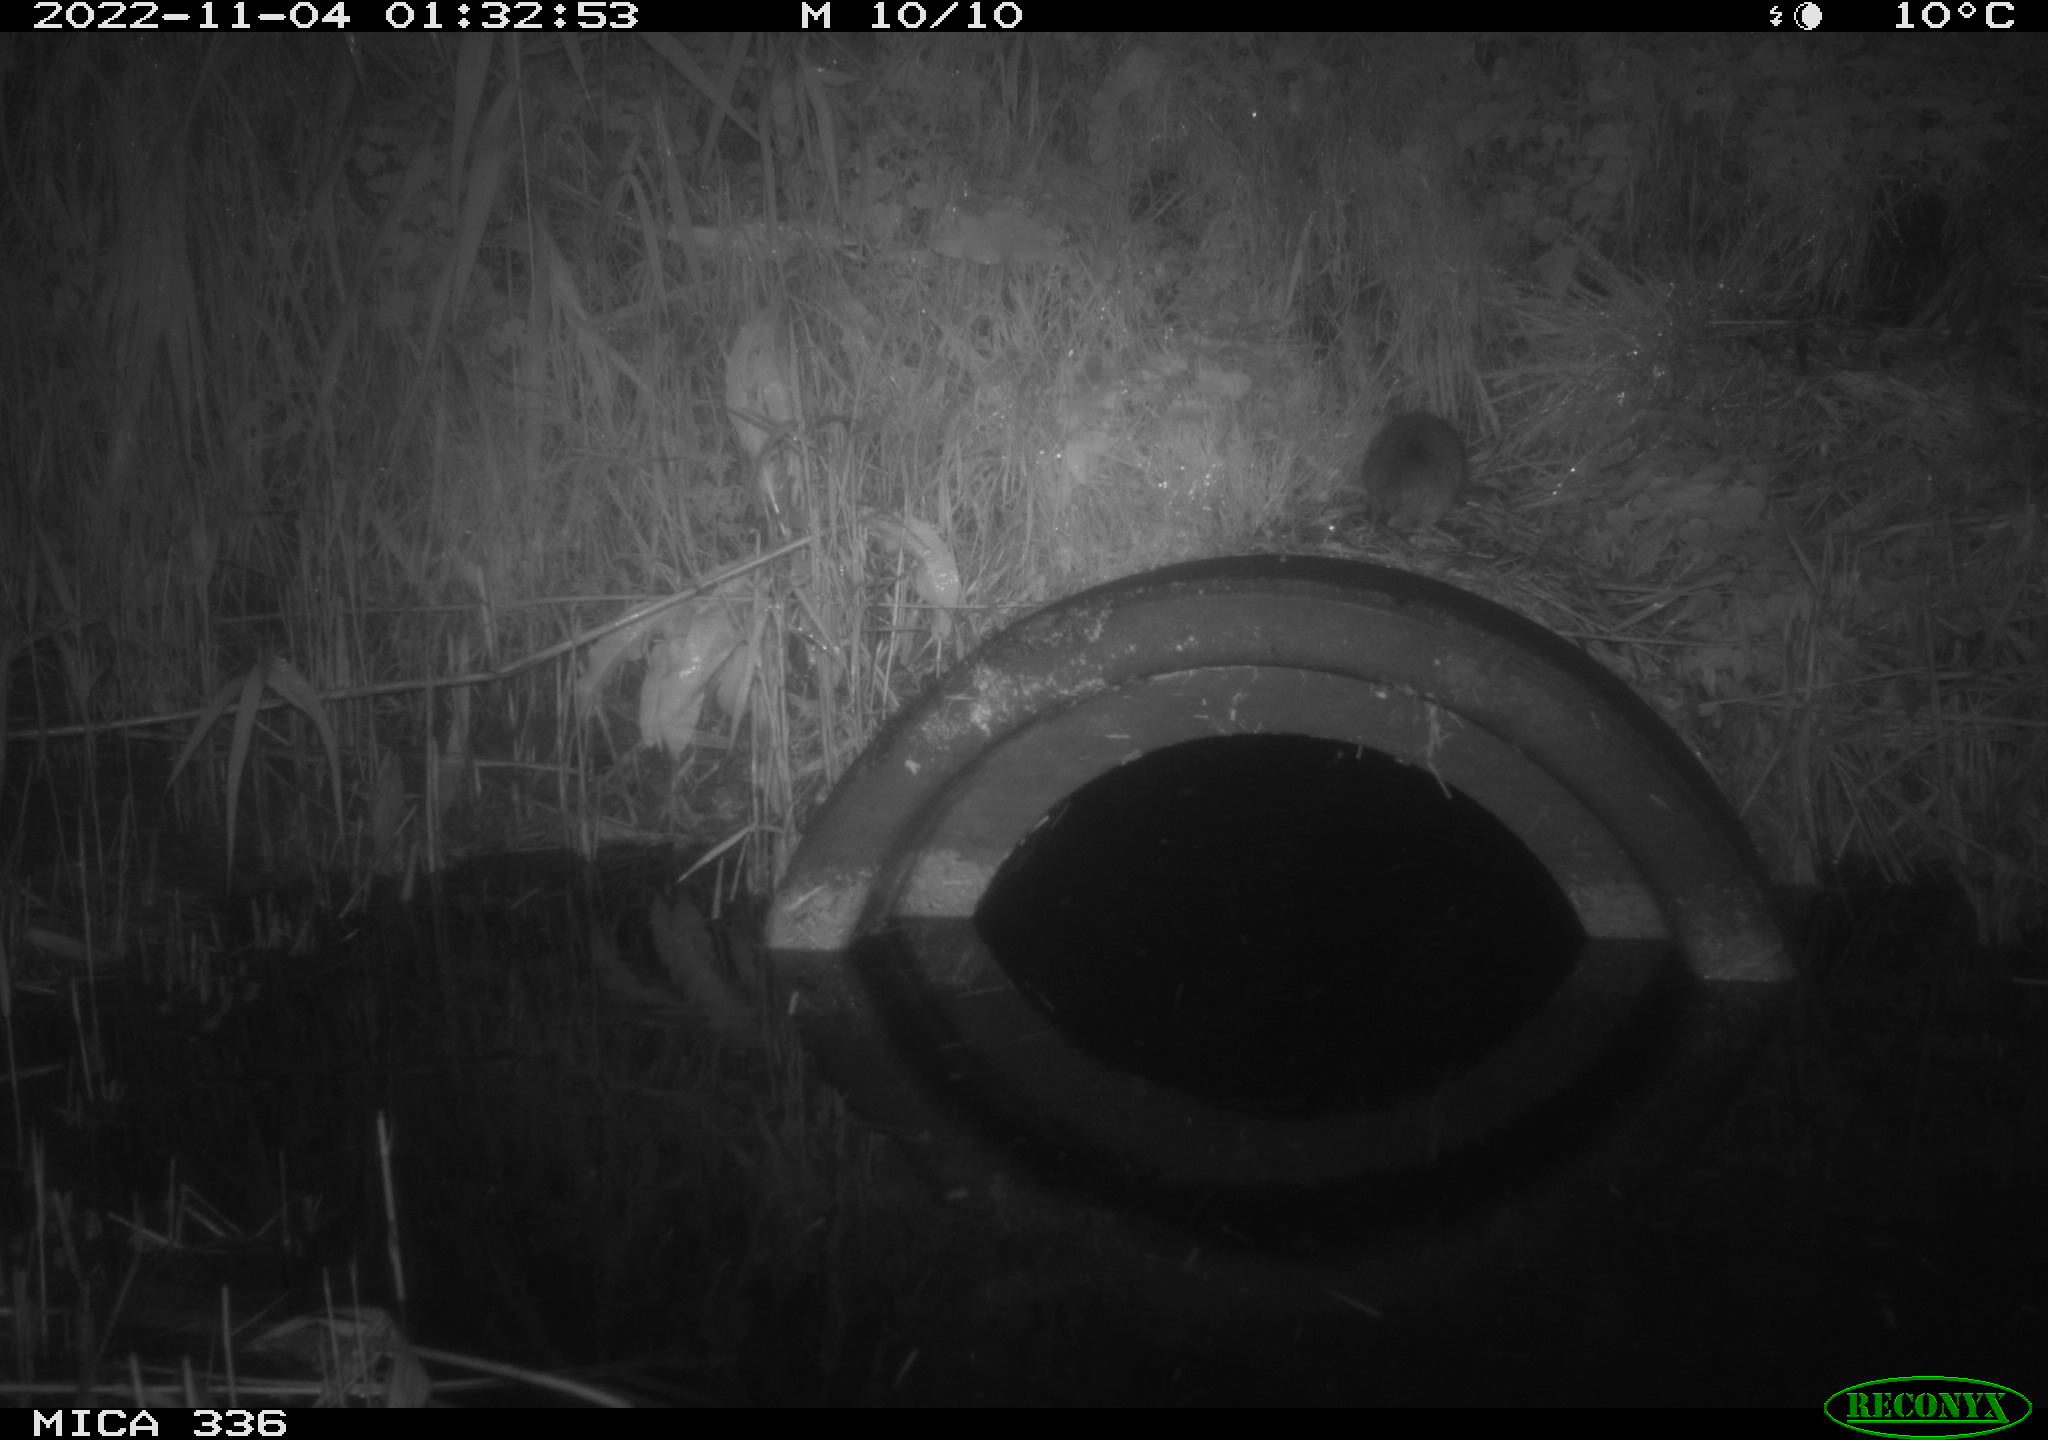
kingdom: Animalia
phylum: Chordata
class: Mammalia
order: Rodentia
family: Muridae
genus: Rattus
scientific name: Rattus norvegicus
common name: Brown rat
